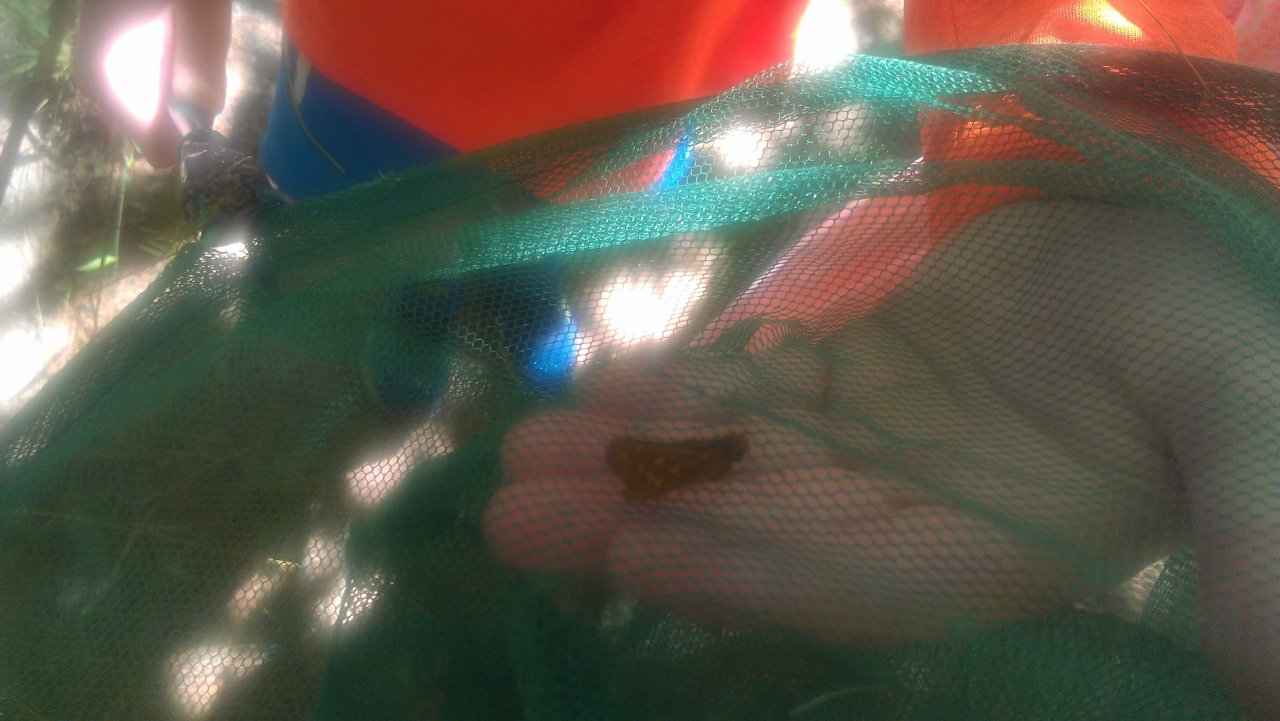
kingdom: Animalia
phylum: Arthropoda
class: Insecta
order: Lepidoptera
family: Hesperiidae
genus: Hesperia
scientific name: Hesperia comma
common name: Common Branded Skipper
